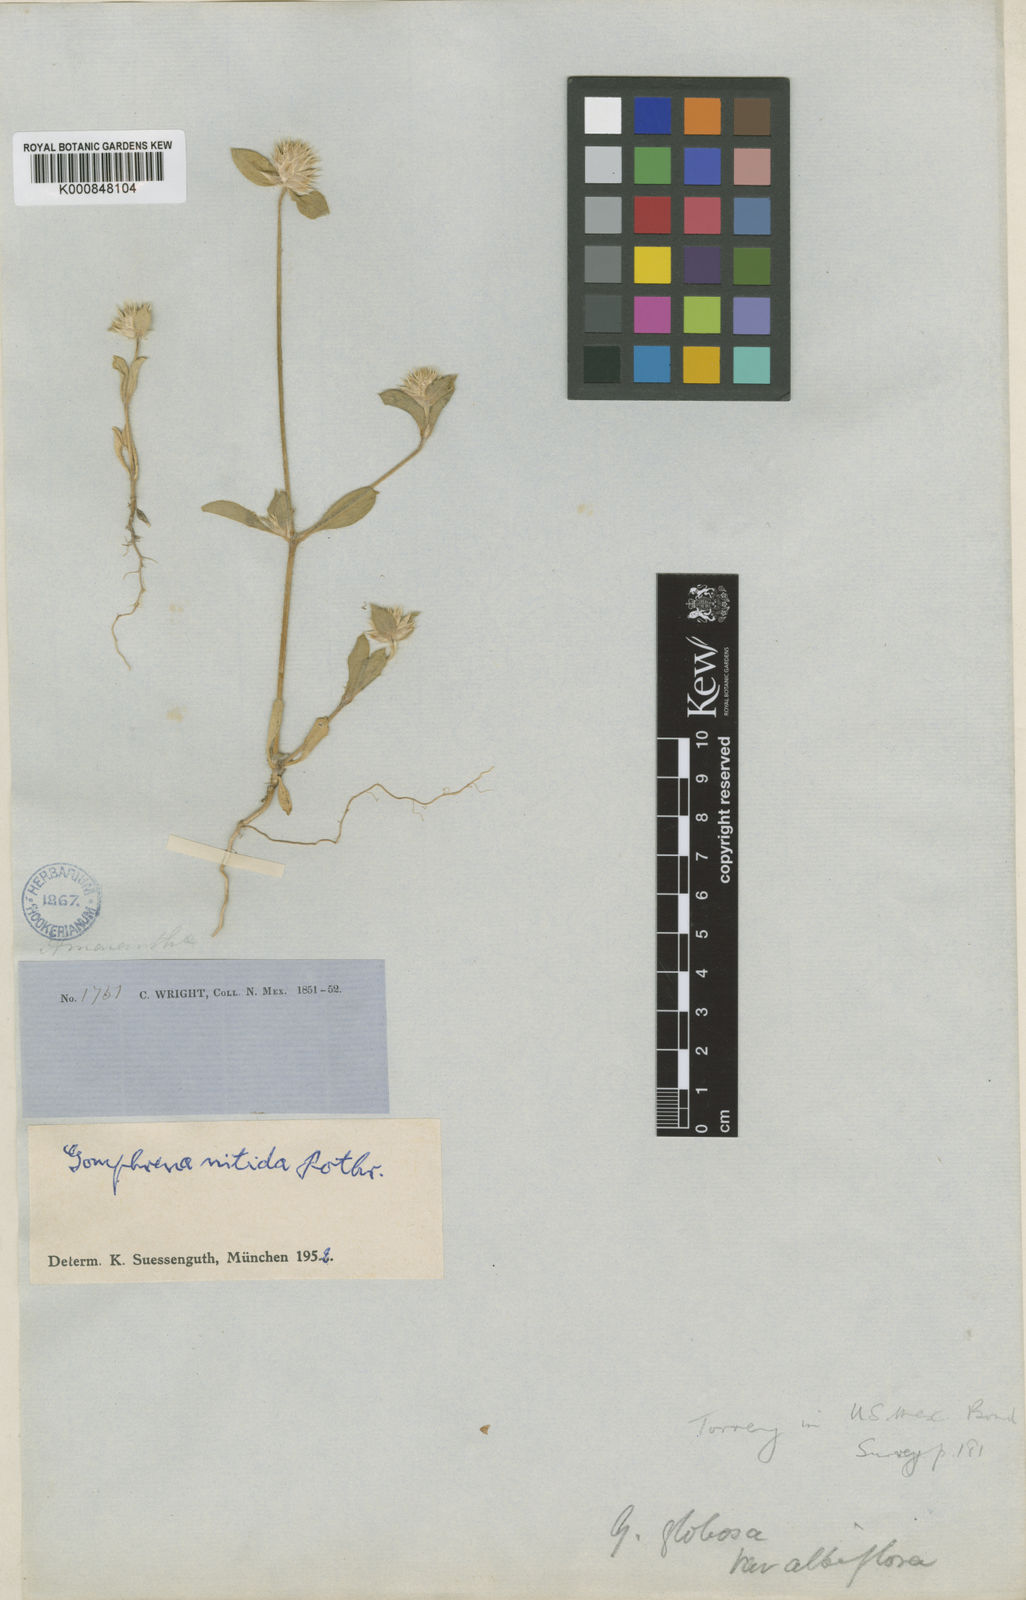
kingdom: Plantae
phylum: Tracheophyta
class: Magnoliopsida
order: Caryophyllales
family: Amaranthaceae
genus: Gomphrena
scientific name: Gomphrena nitida
